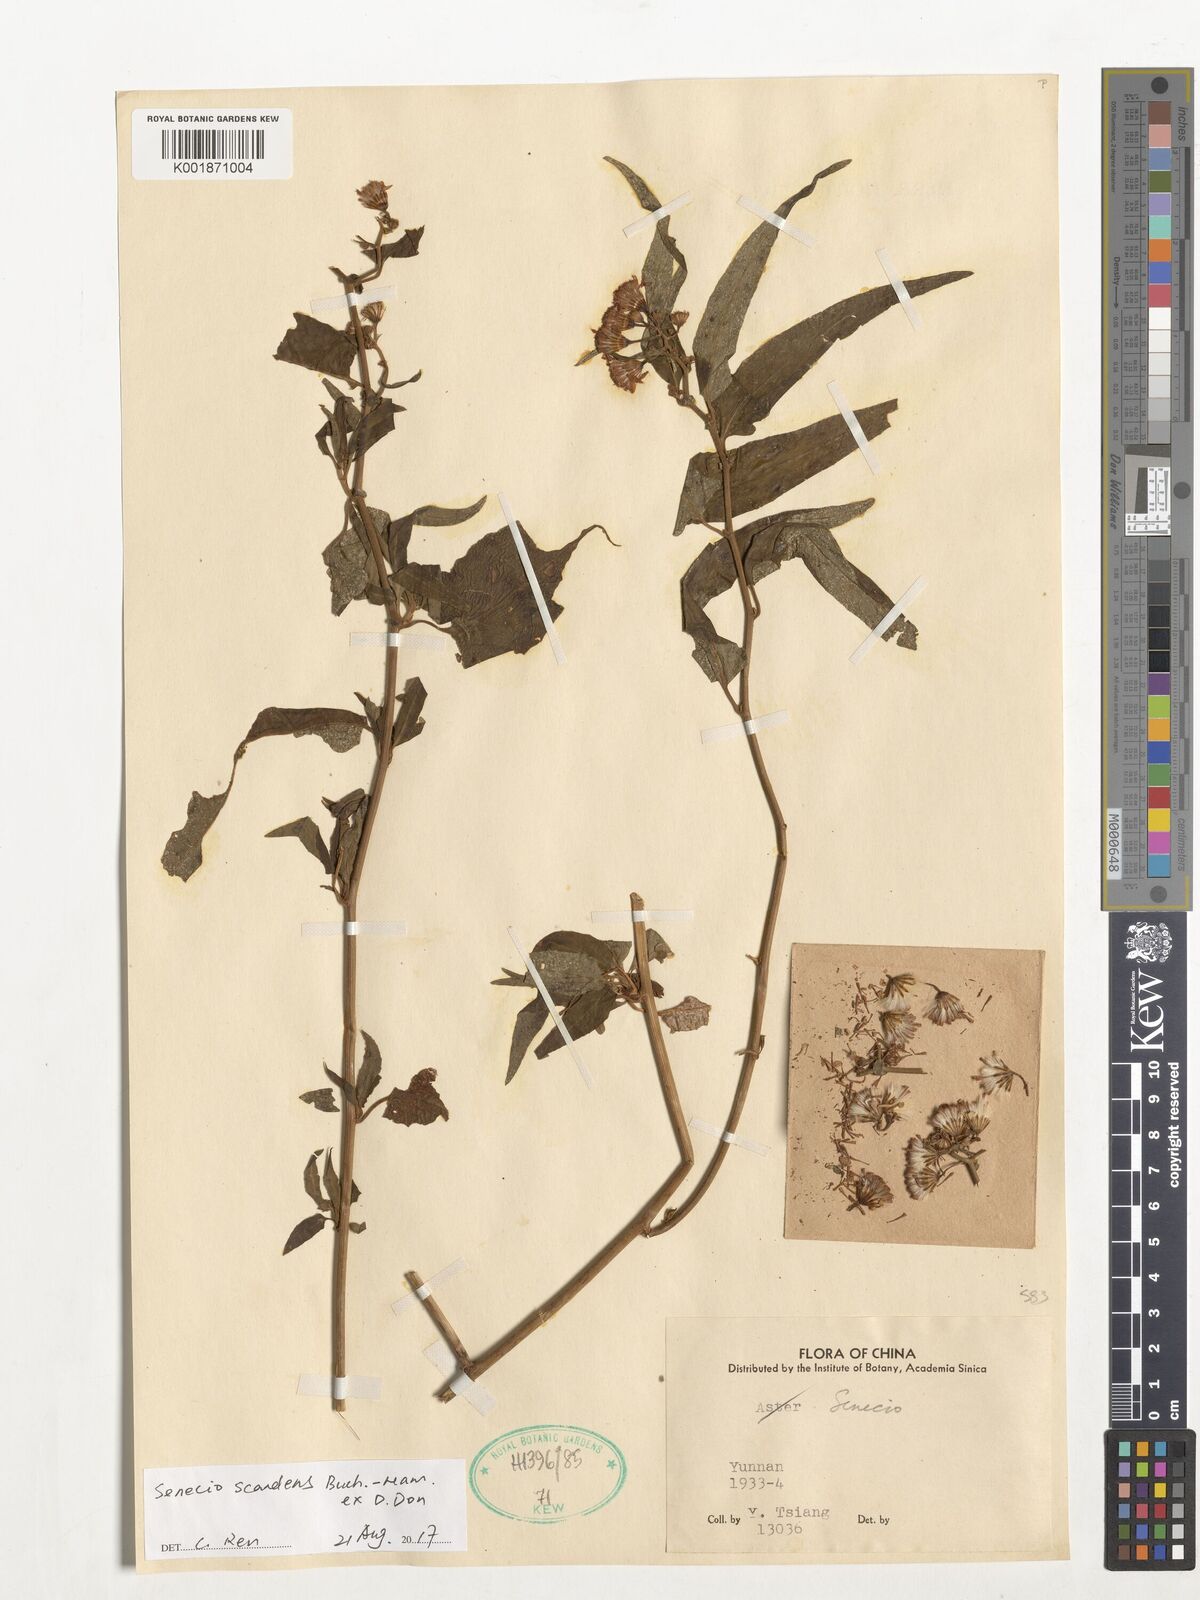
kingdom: Plantae
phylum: Tracheophyta
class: Magnoliopsida
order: Asterales
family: Asteraceae
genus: Senecio
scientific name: Senecio scandens
